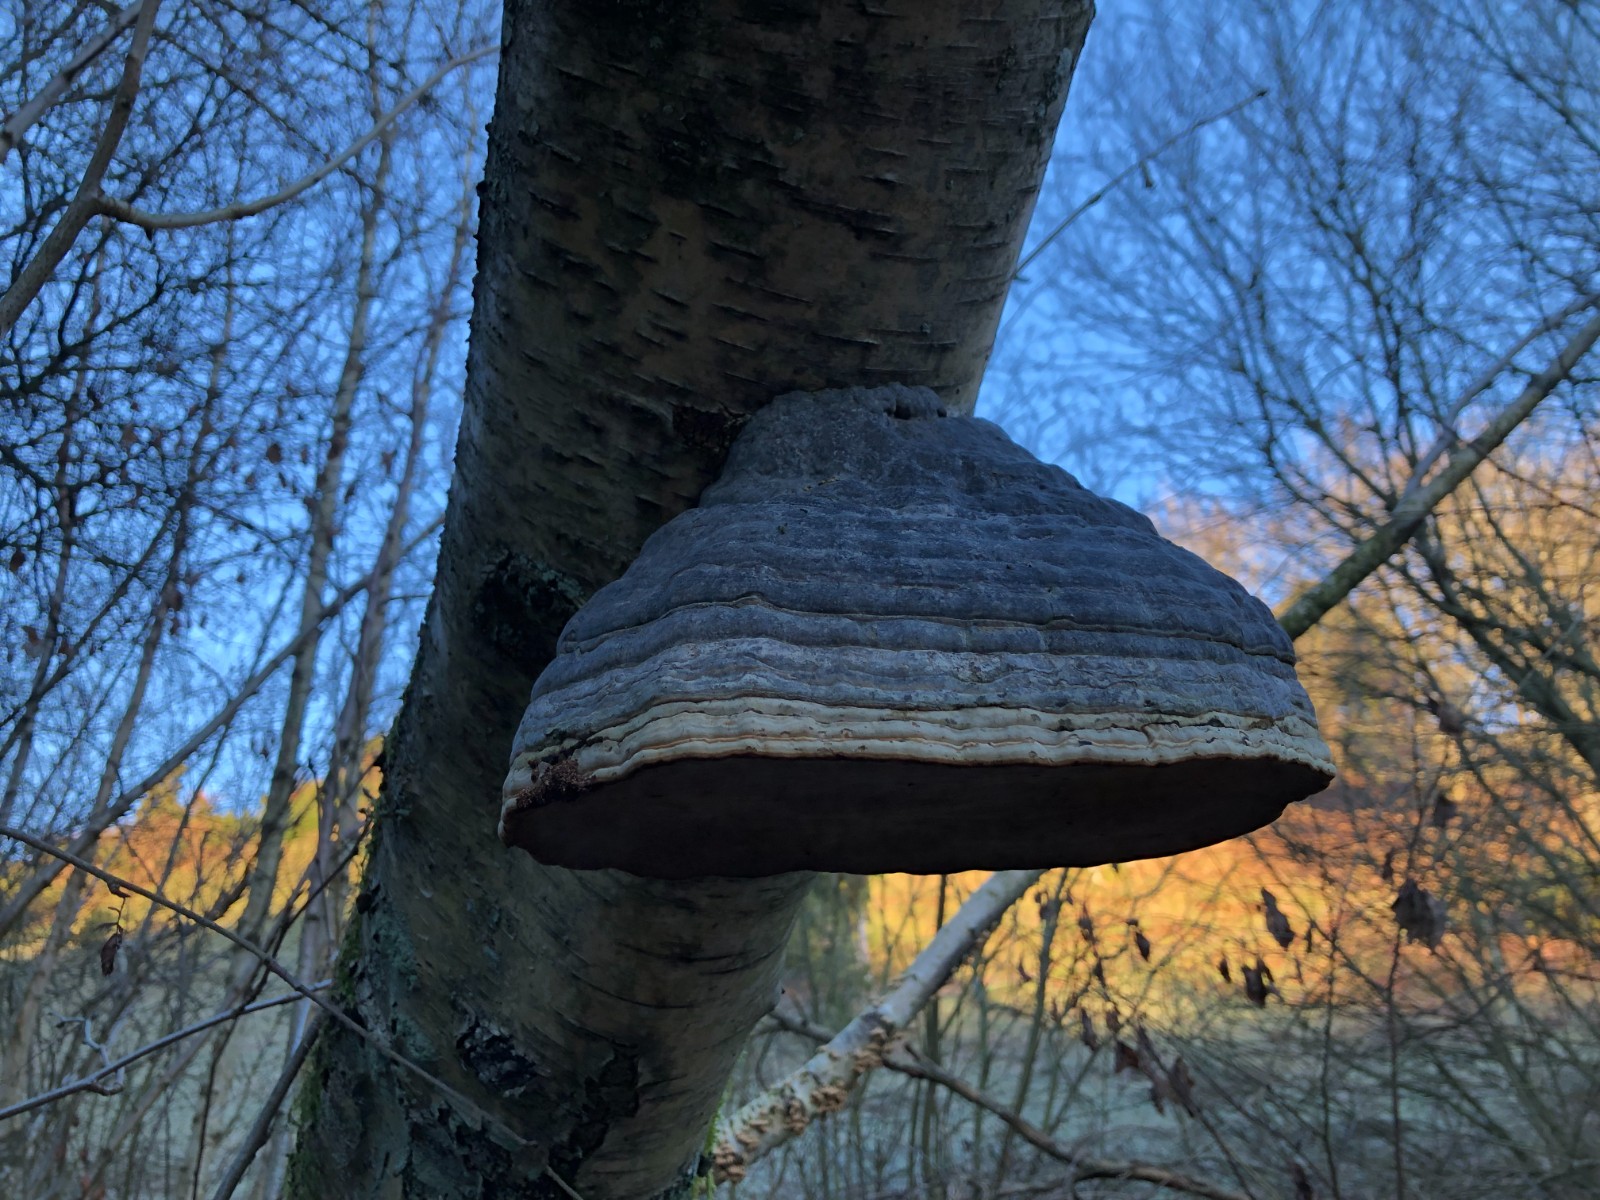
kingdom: Fungi
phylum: Basidiomycota
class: Agaricomycetes
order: Polyporales
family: Polyporaceae
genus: Fomes
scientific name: Fomes fomentarius
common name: tøndersvamp
